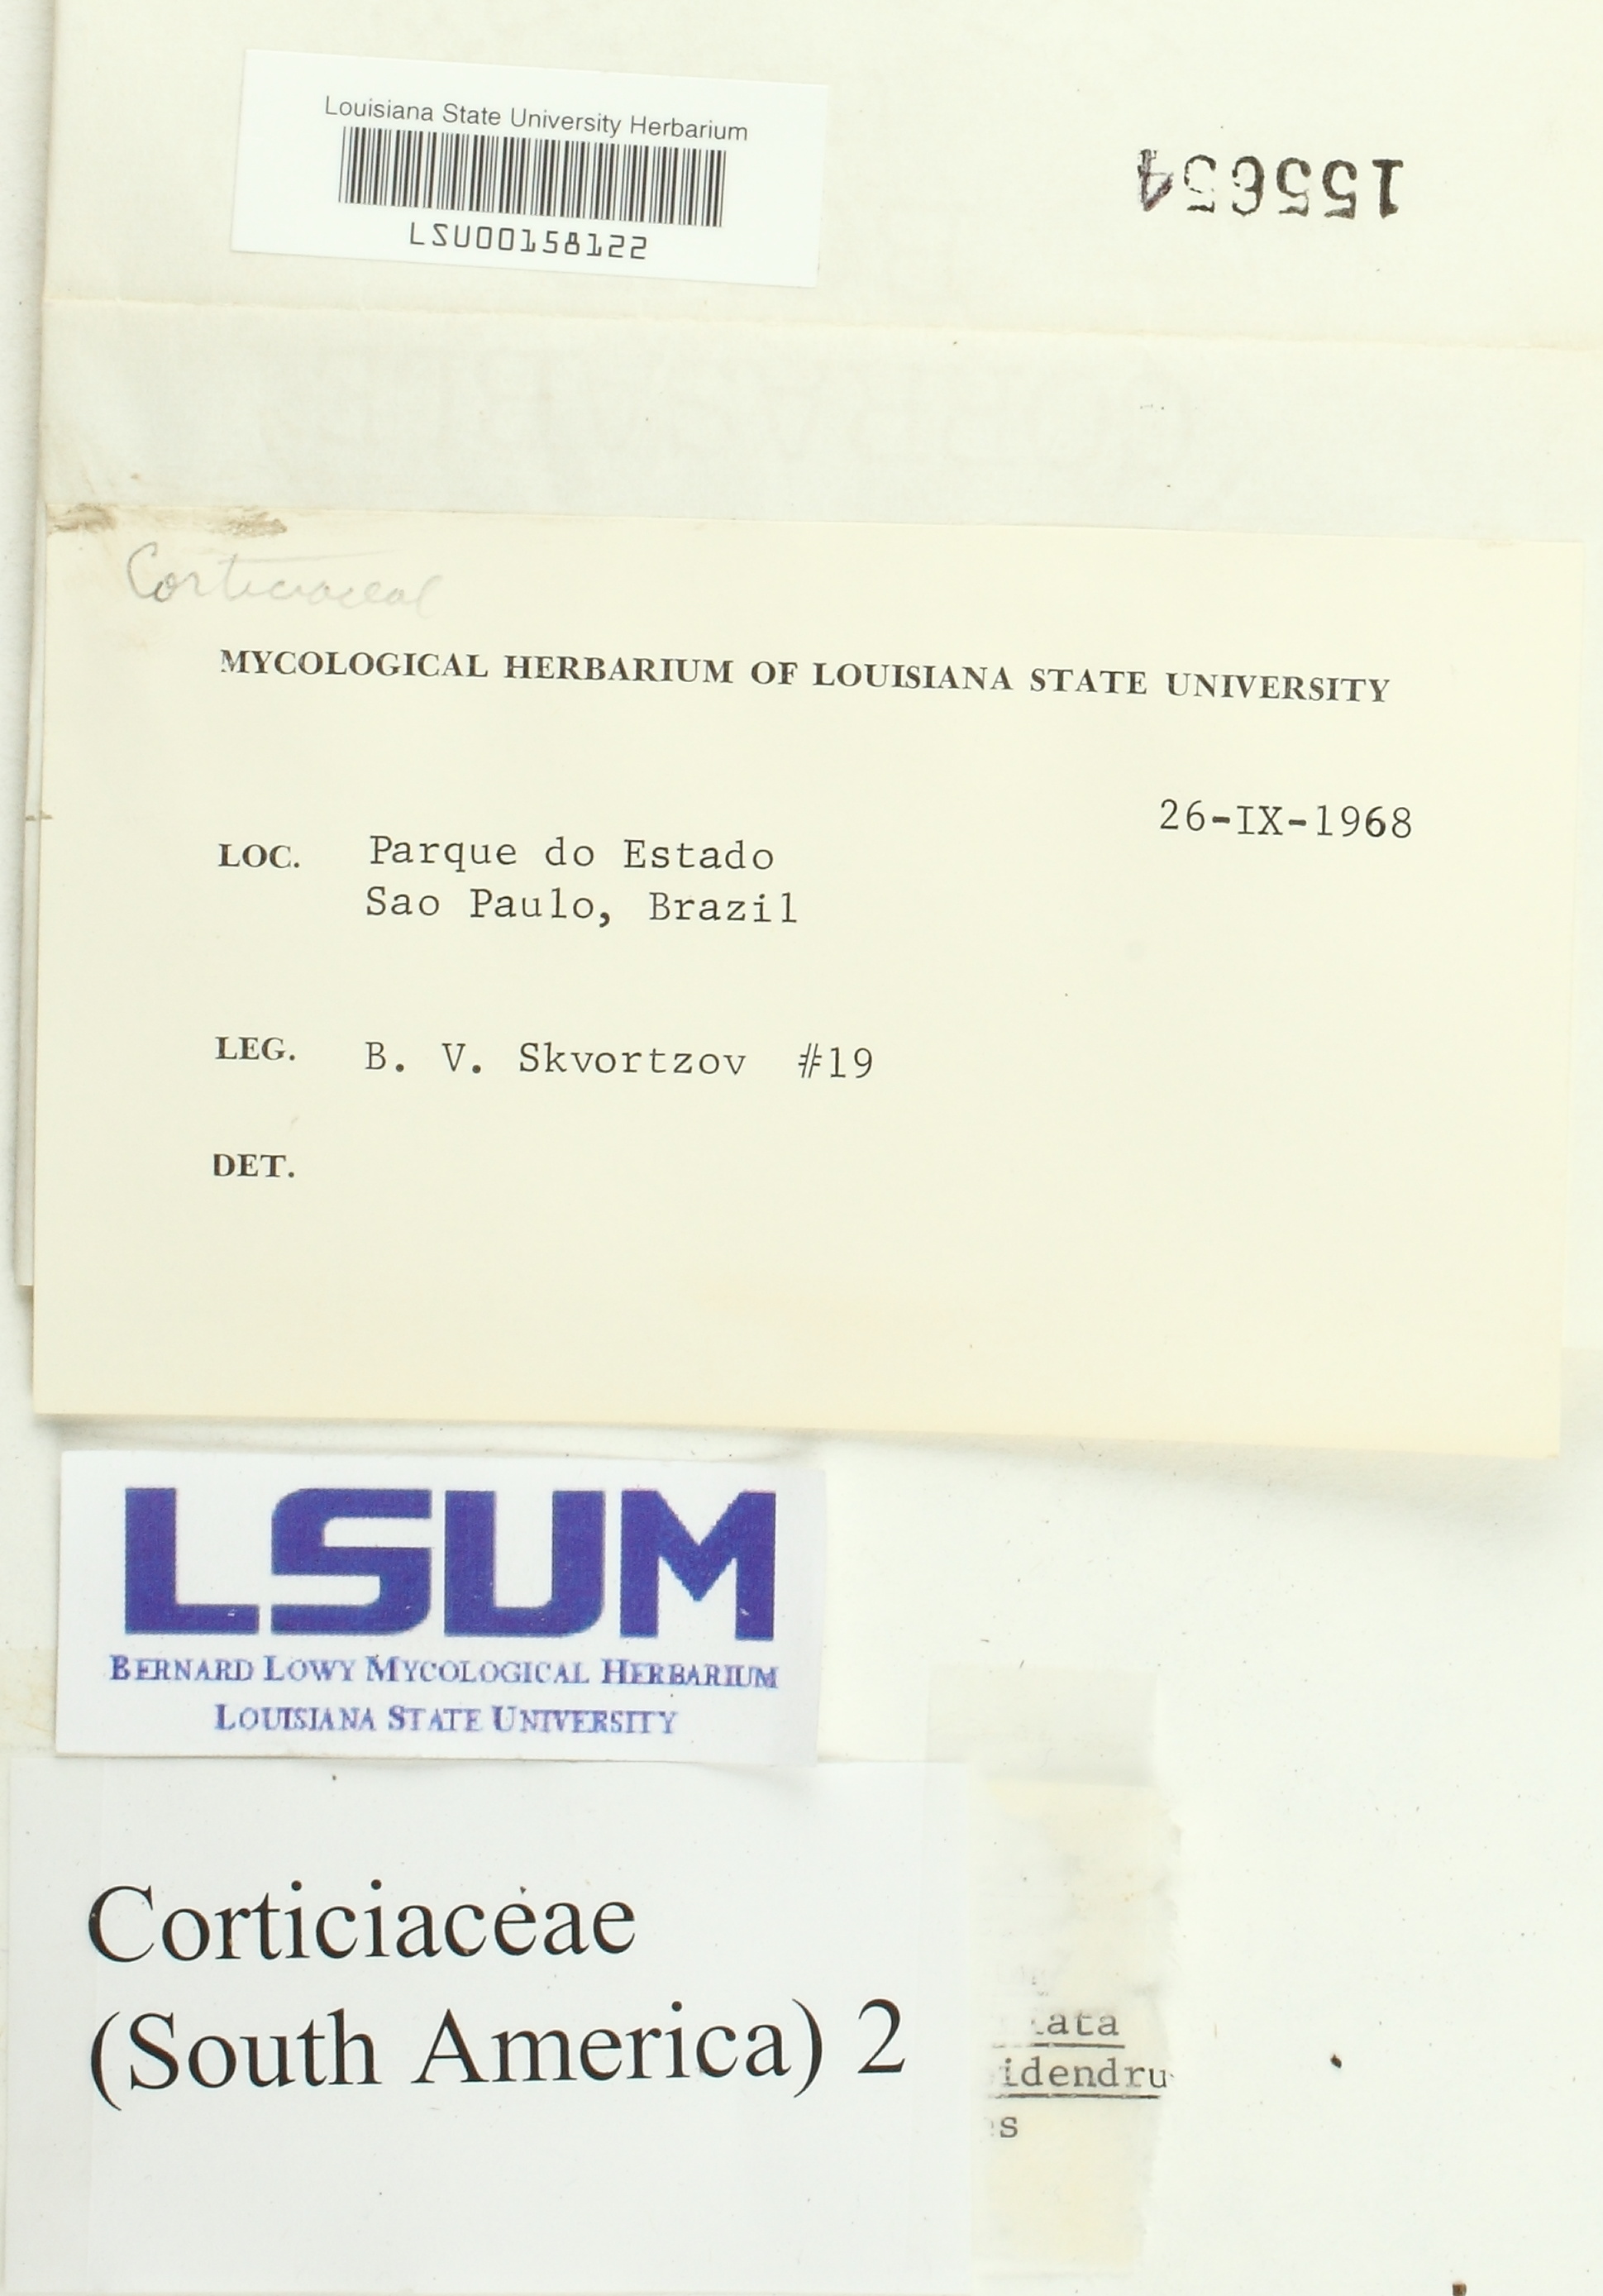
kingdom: Fungi
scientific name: Fungi
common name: Fungi
